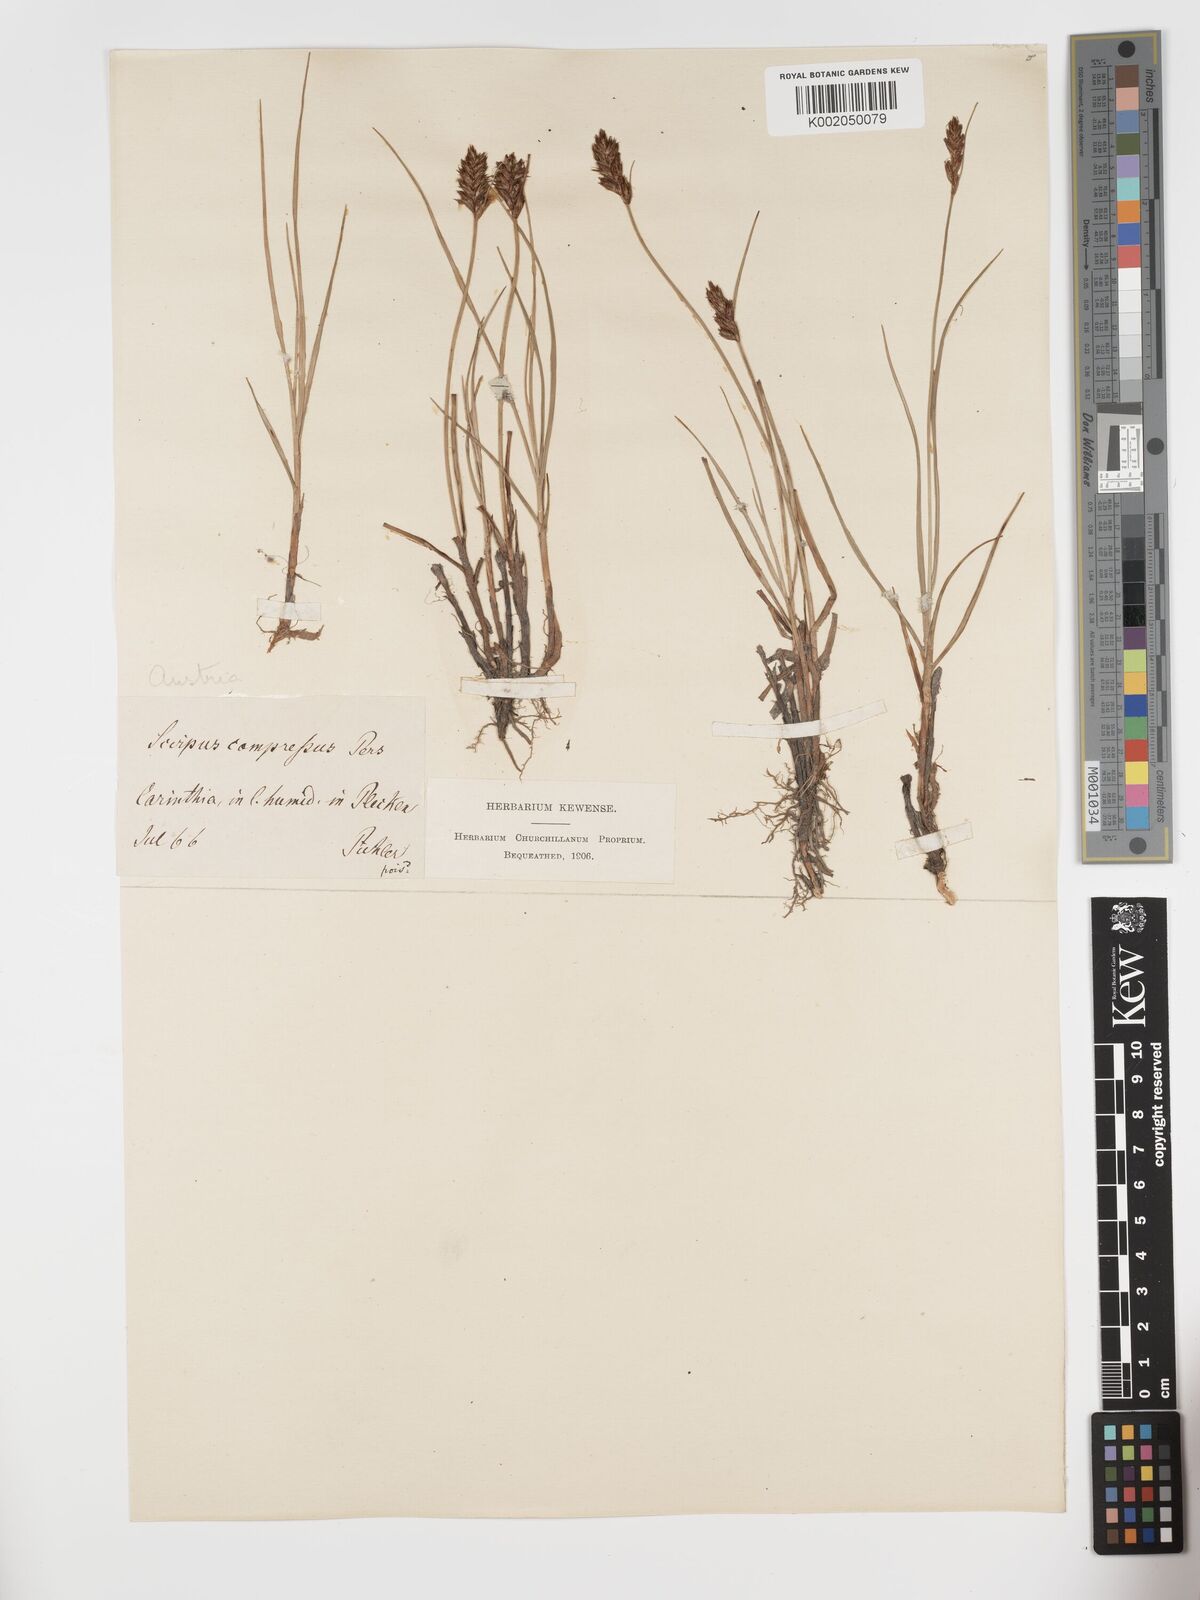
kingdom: Plantae
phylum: Tracheophyta
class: Liliopsida
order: Poales
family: Cyperaceae
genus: Blysmus
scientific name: Blysmus compressus
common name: Flat-sedge
